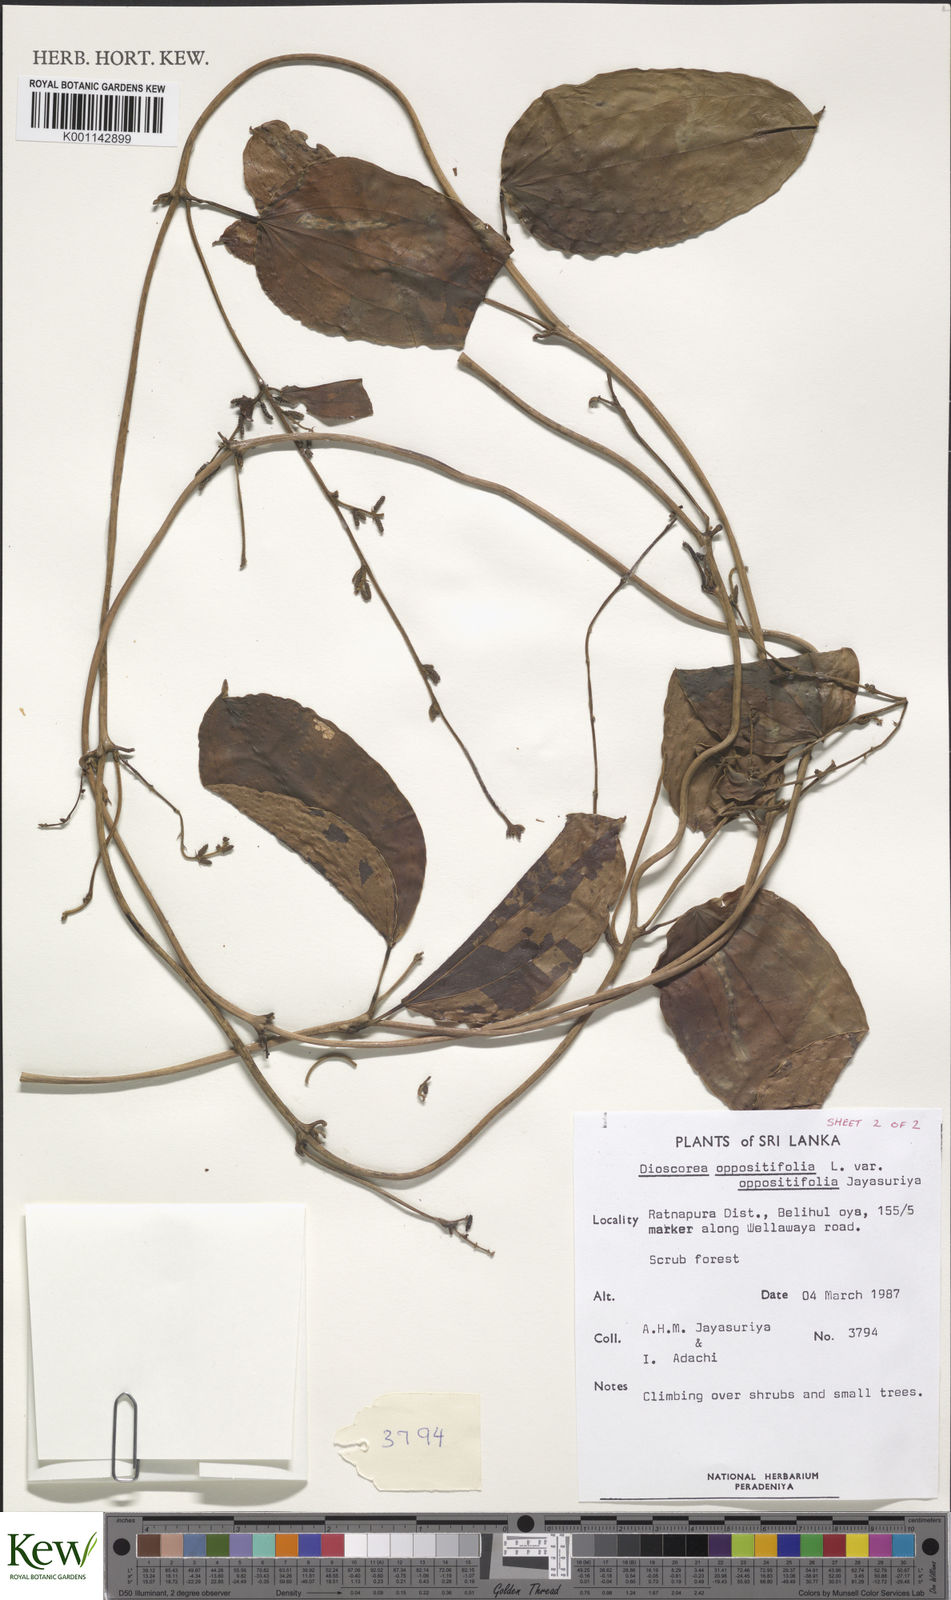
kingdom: Plantae
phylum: Tracheophyta
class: Liliopsida
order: Dioscoreales
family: Dioscoreaceae
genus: Dioscorea
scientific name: Dioscorea oppositifolia
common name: Chinese yam
